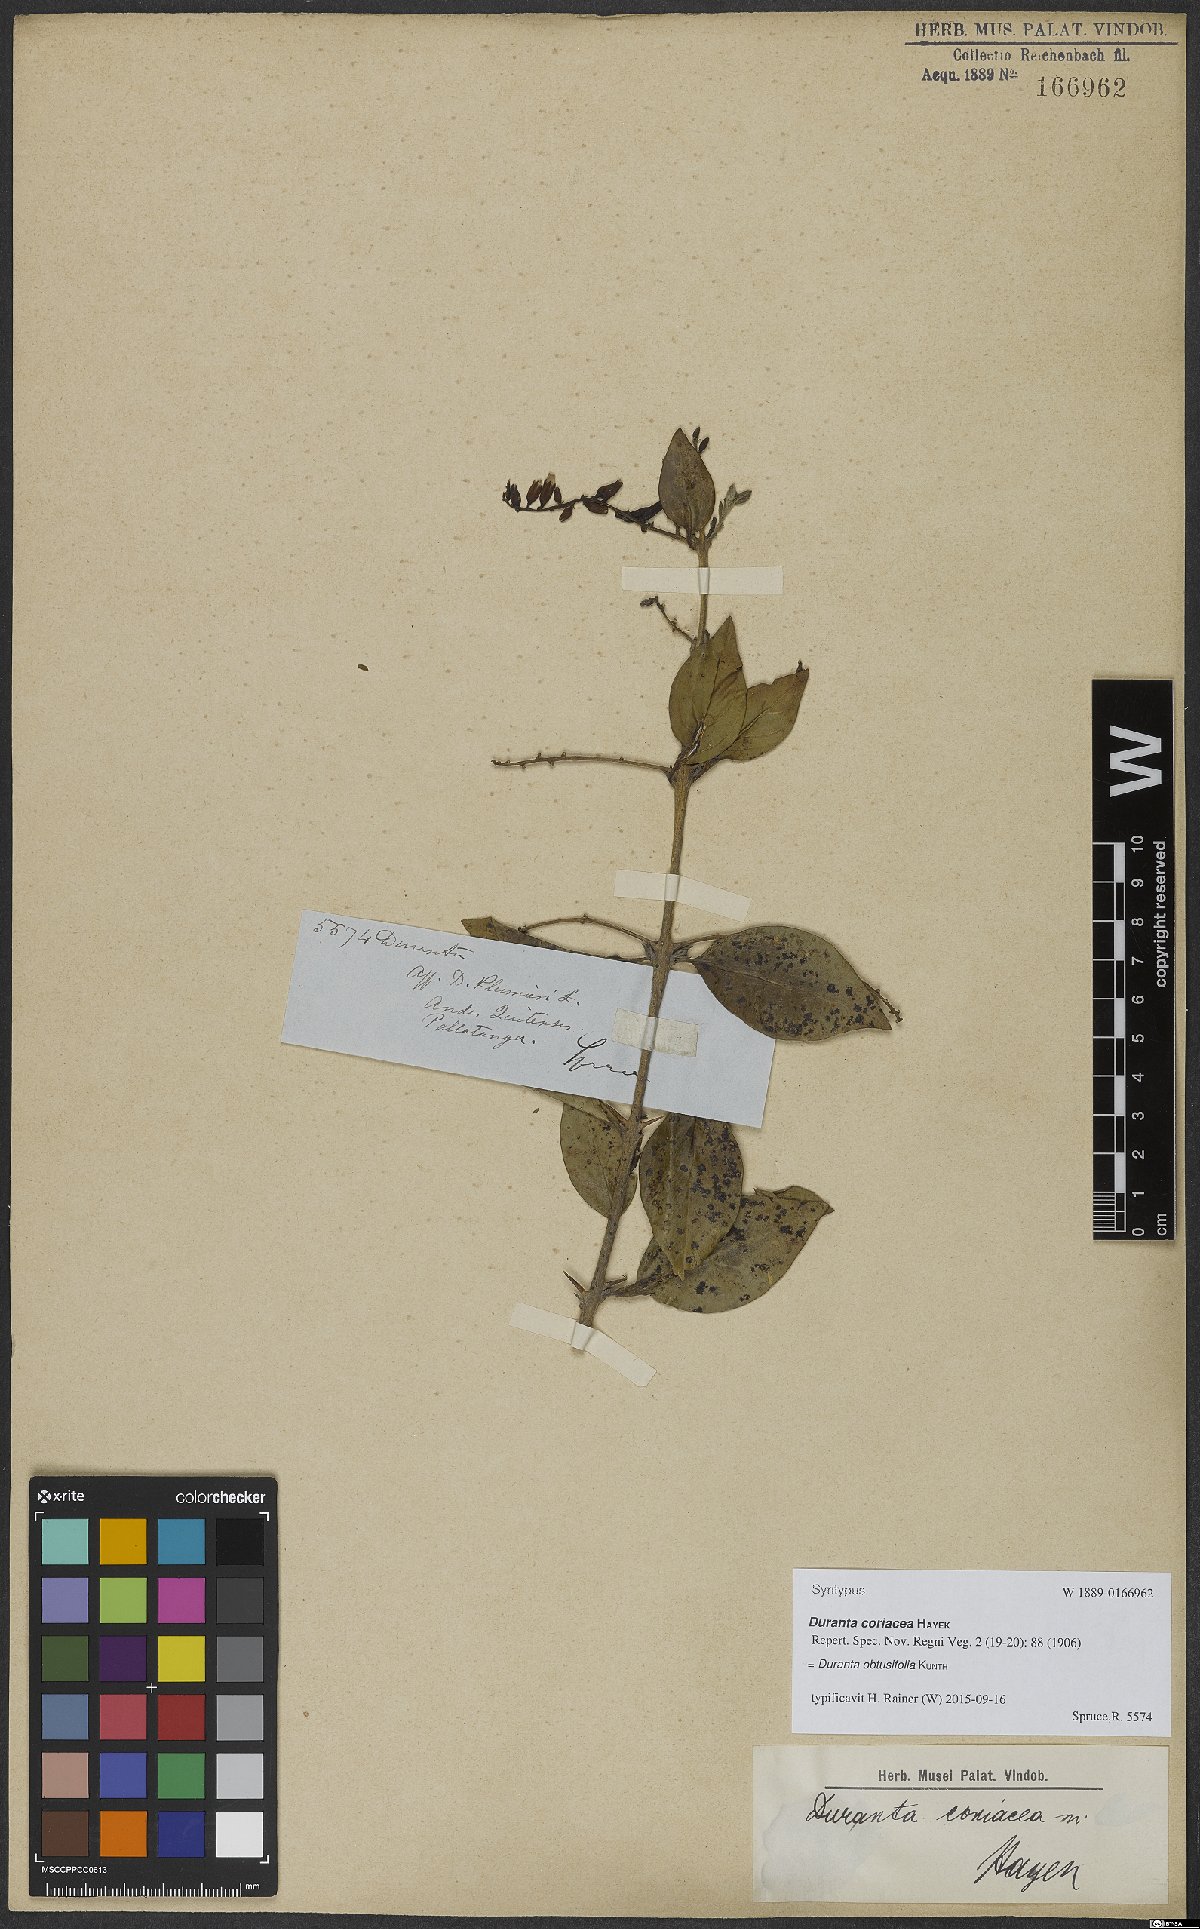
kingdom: Plantae
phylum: Tracheophyta
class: Magnoliopsida
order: Lamiales
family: Verbenaceae
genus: Duranta
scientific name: Duranta obtusifolia
